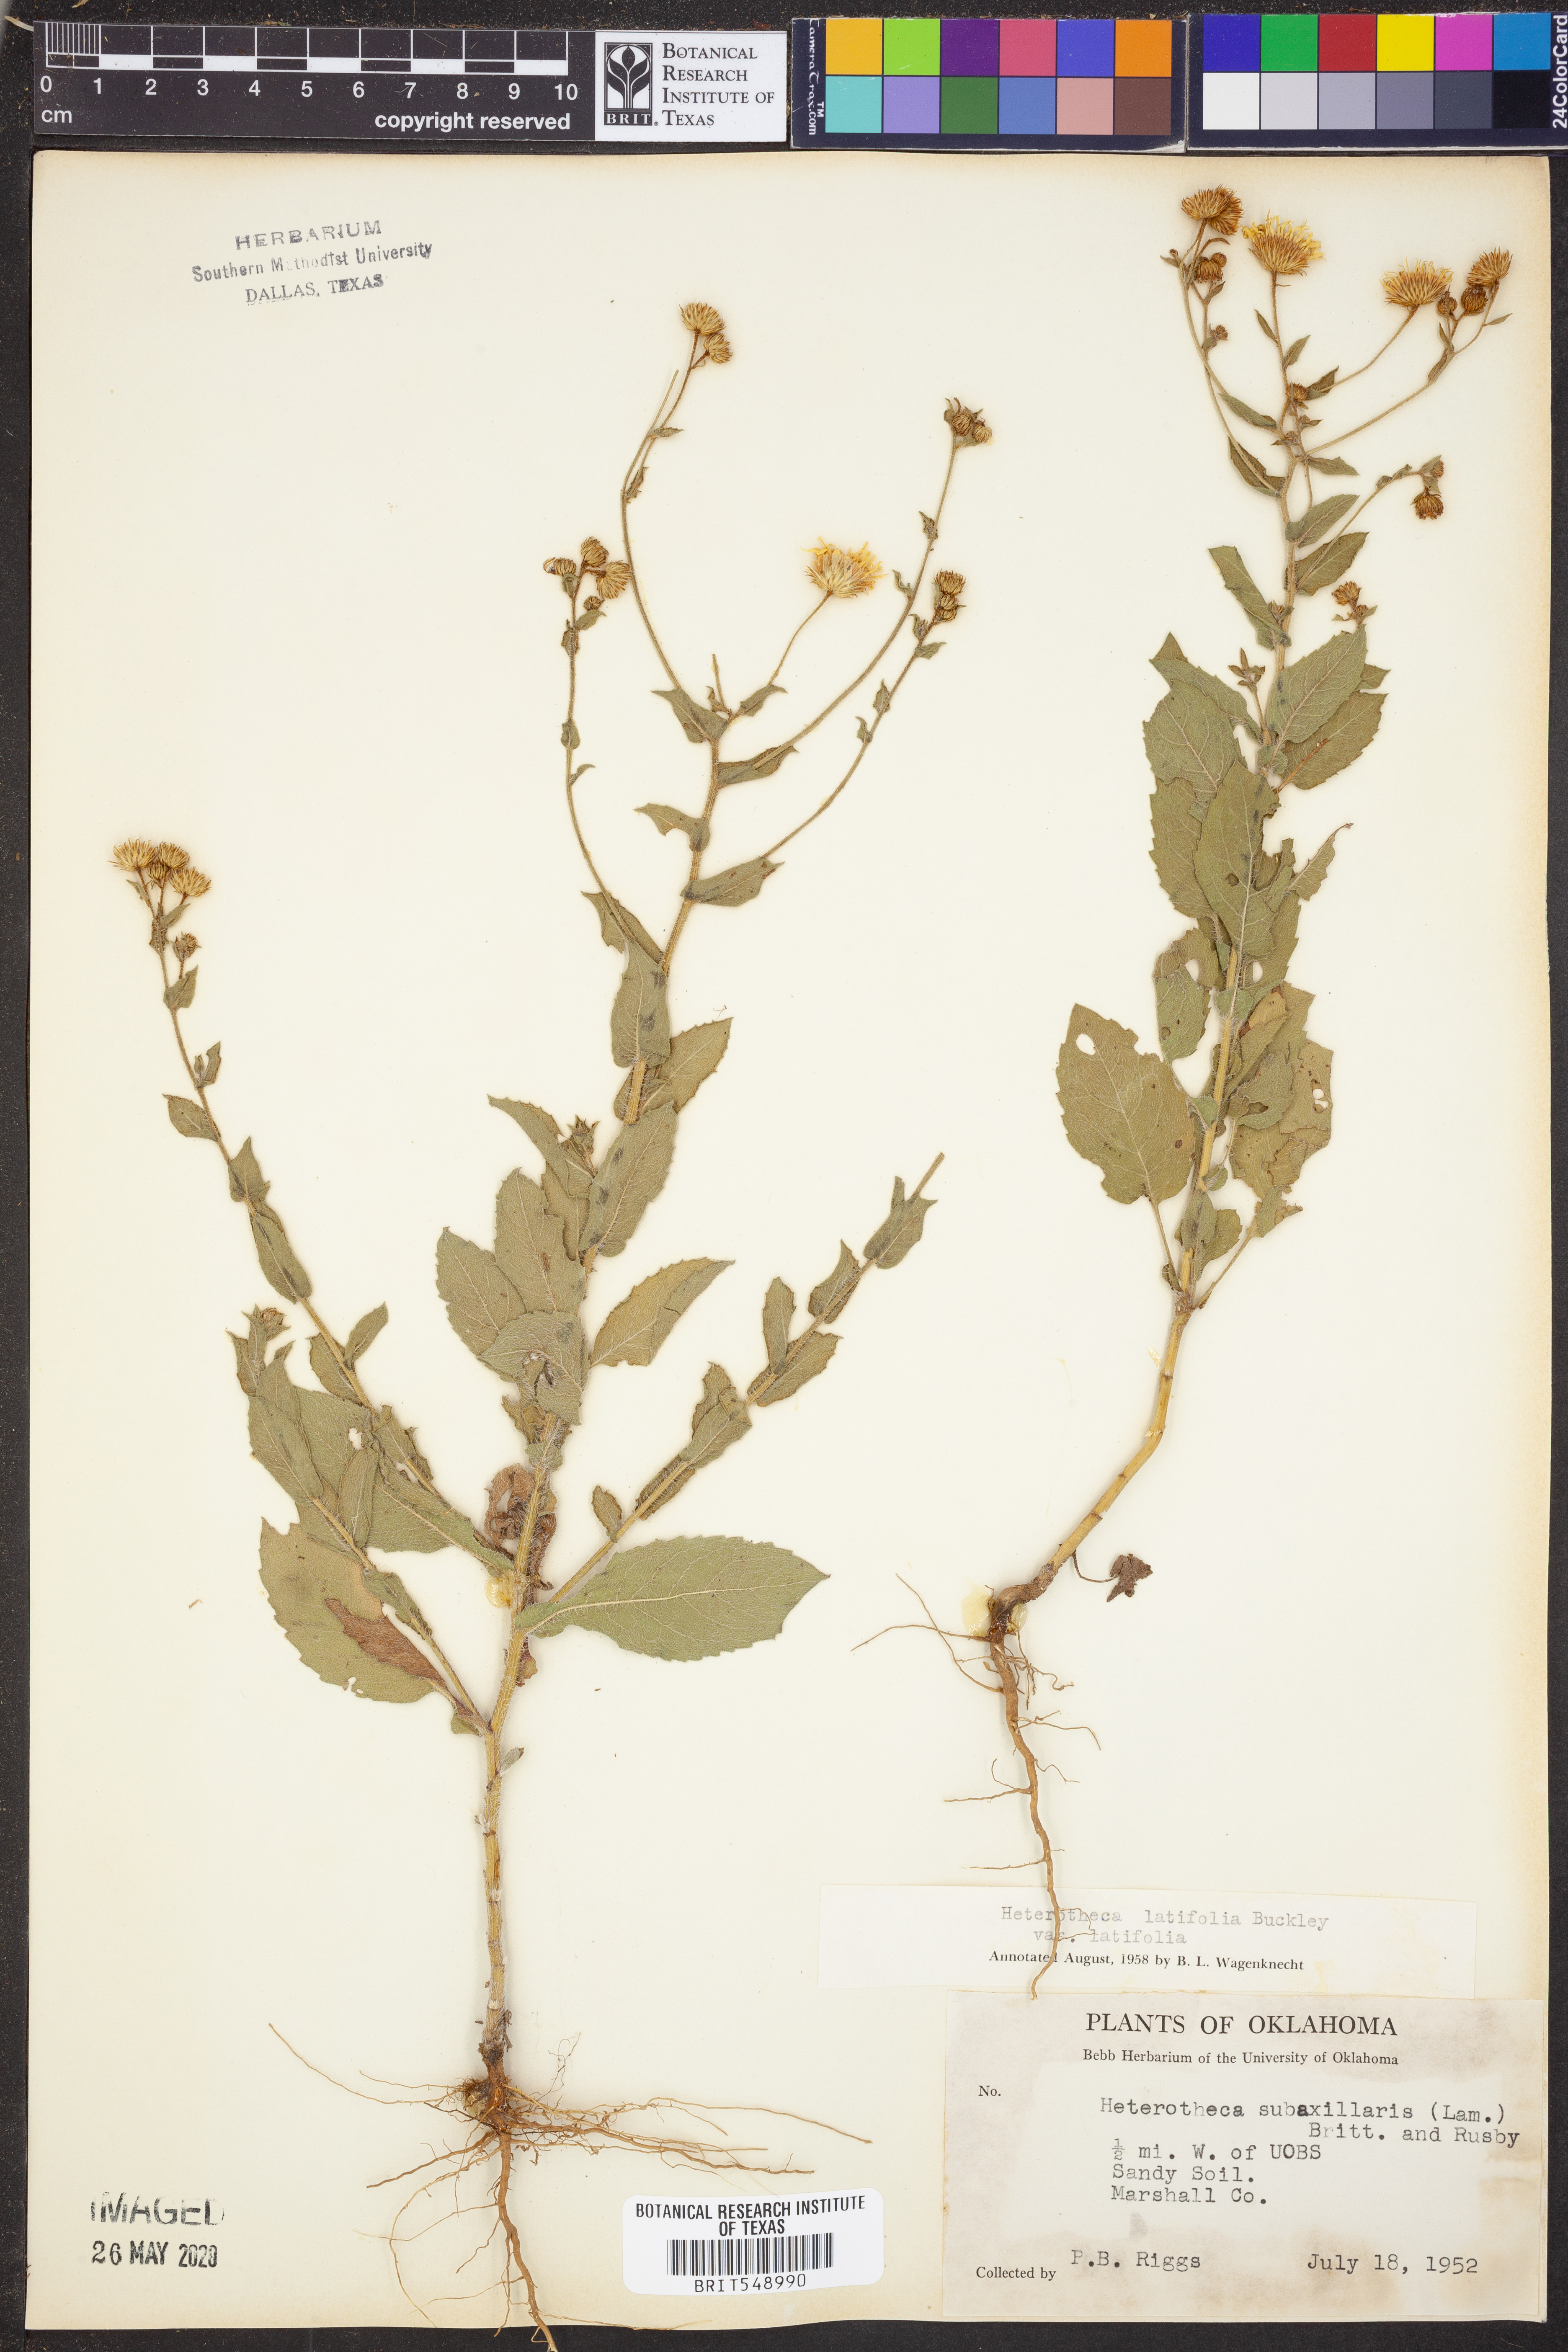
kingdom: Plantae
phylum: Tracheophyta
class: Magnoliopsida
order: Asterales
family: Asteraceae
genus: Heterotheca
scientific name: Heterotheca subaxillaris
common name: Camphorweed
